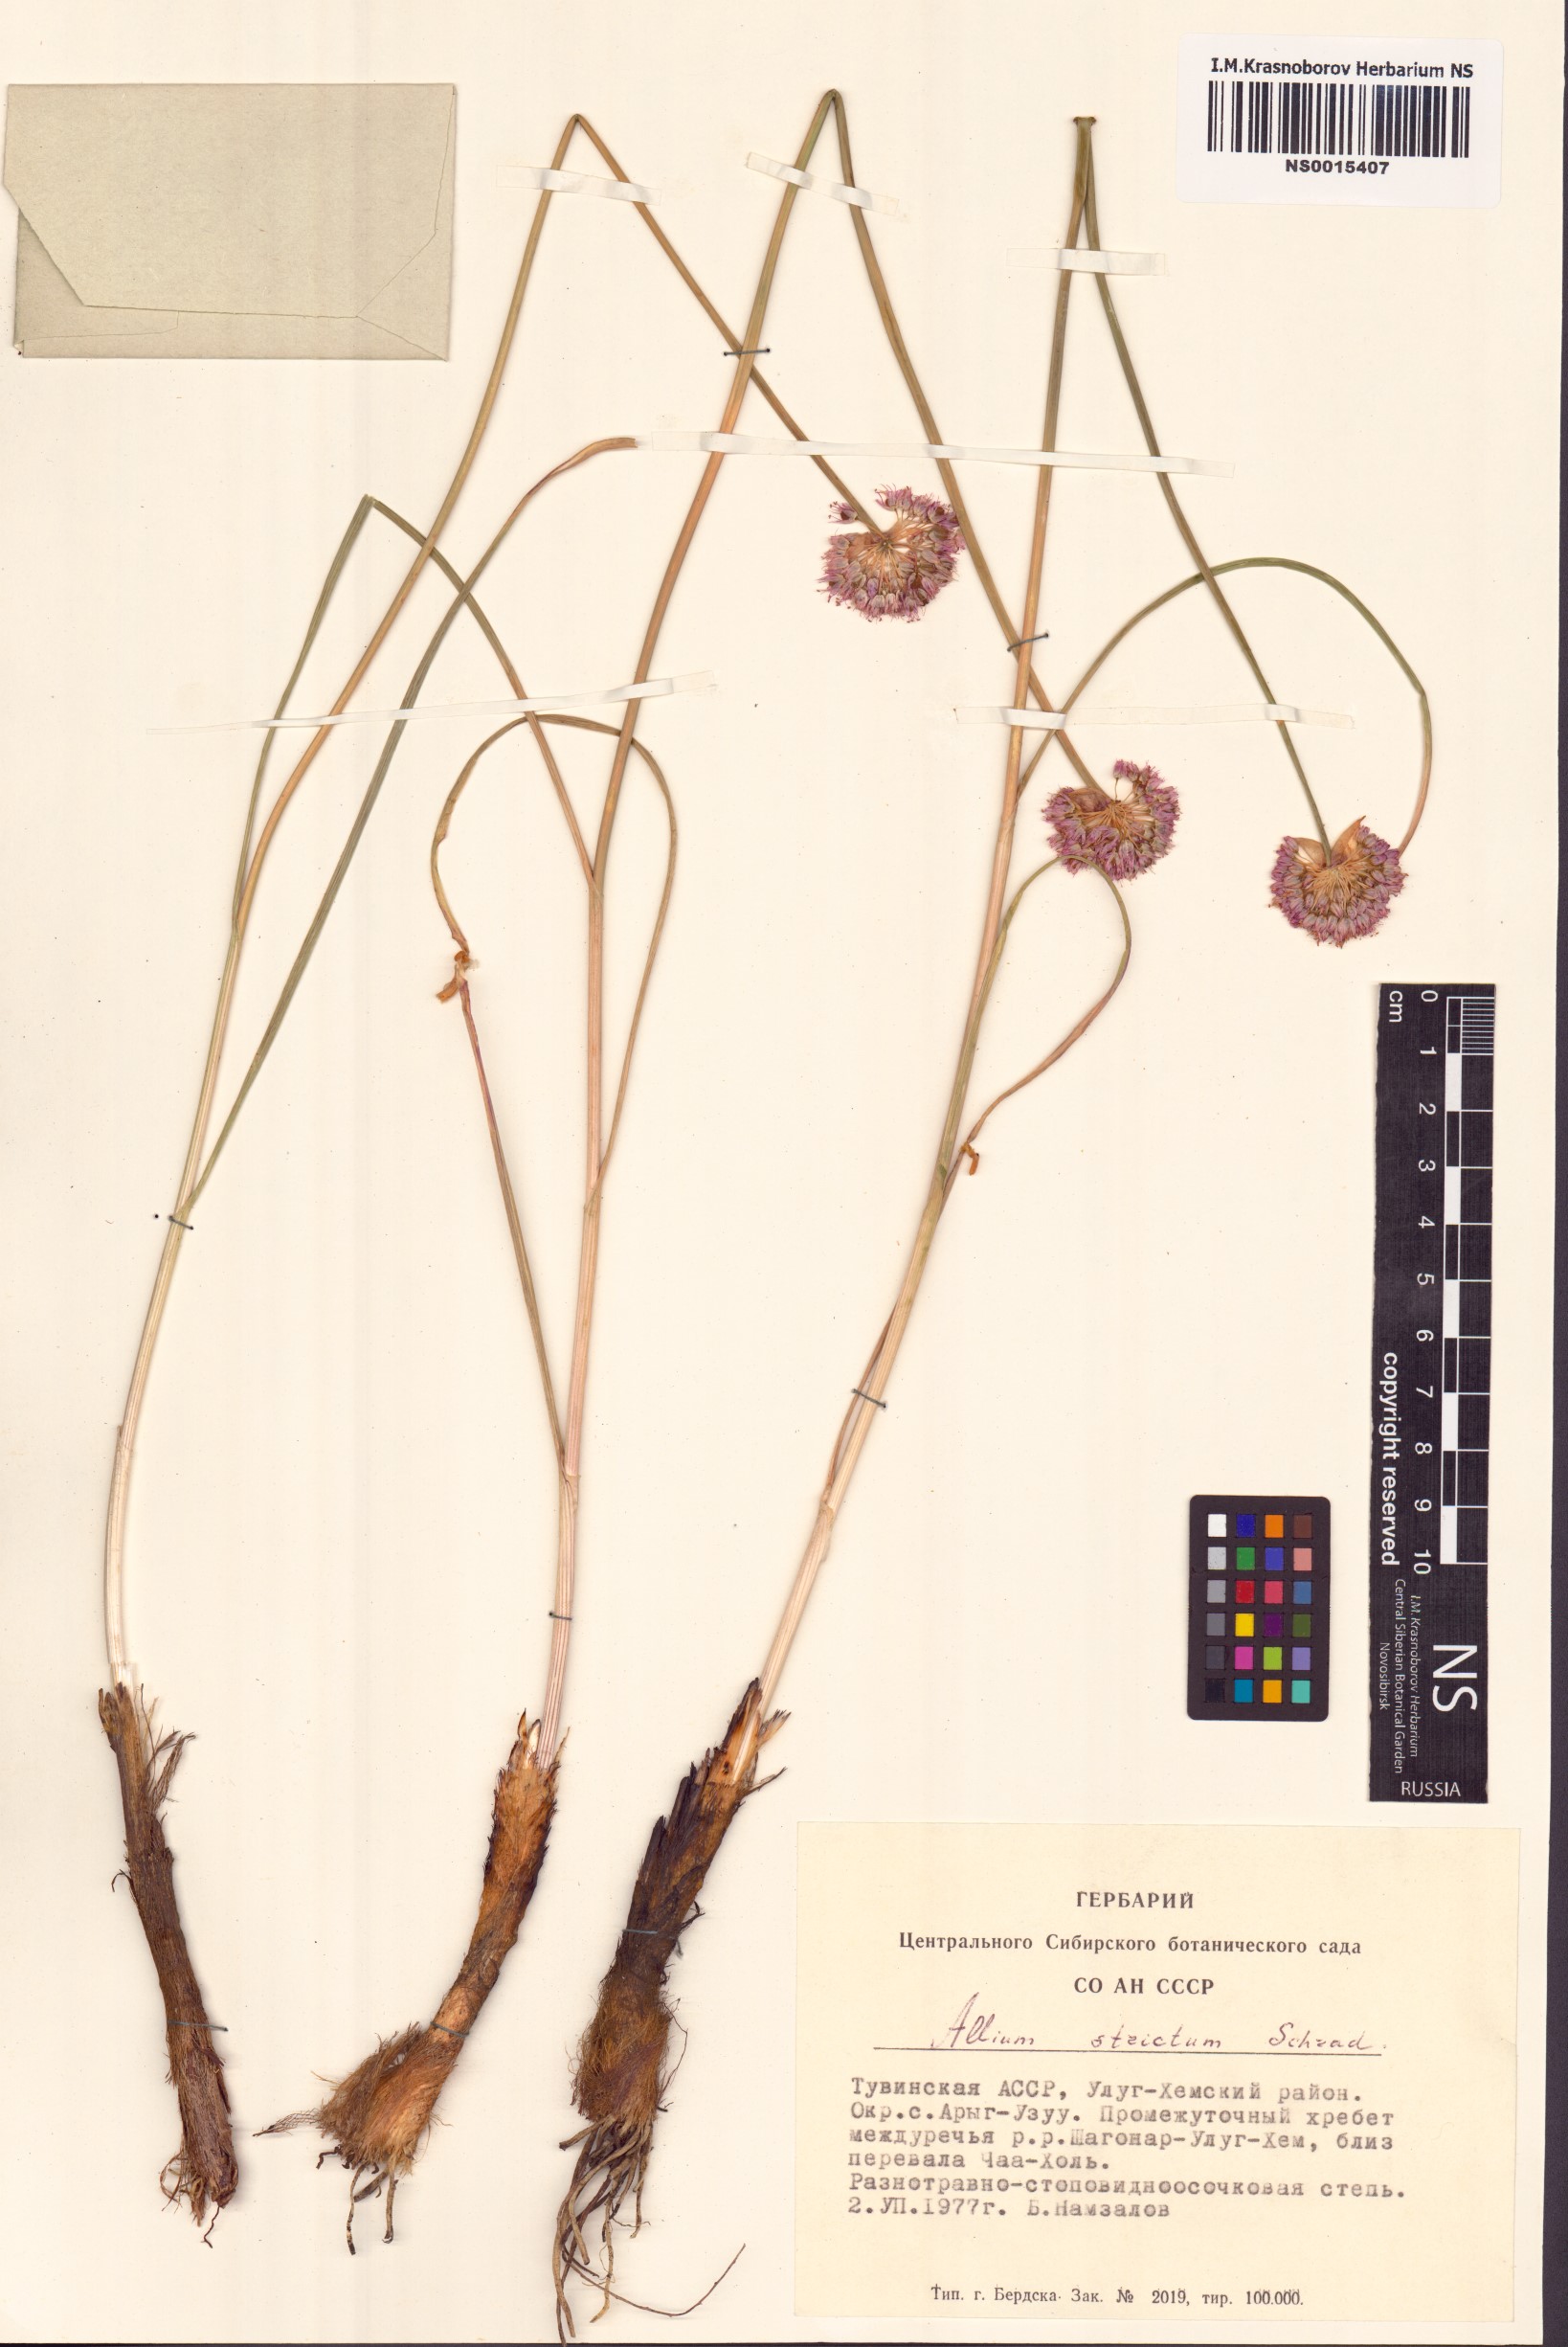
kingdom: Plantae
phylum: Tracheophyta
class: Liliopsida
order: Asparagales
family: Amaryllidaceae
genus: Allium
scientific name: Allium strictum
